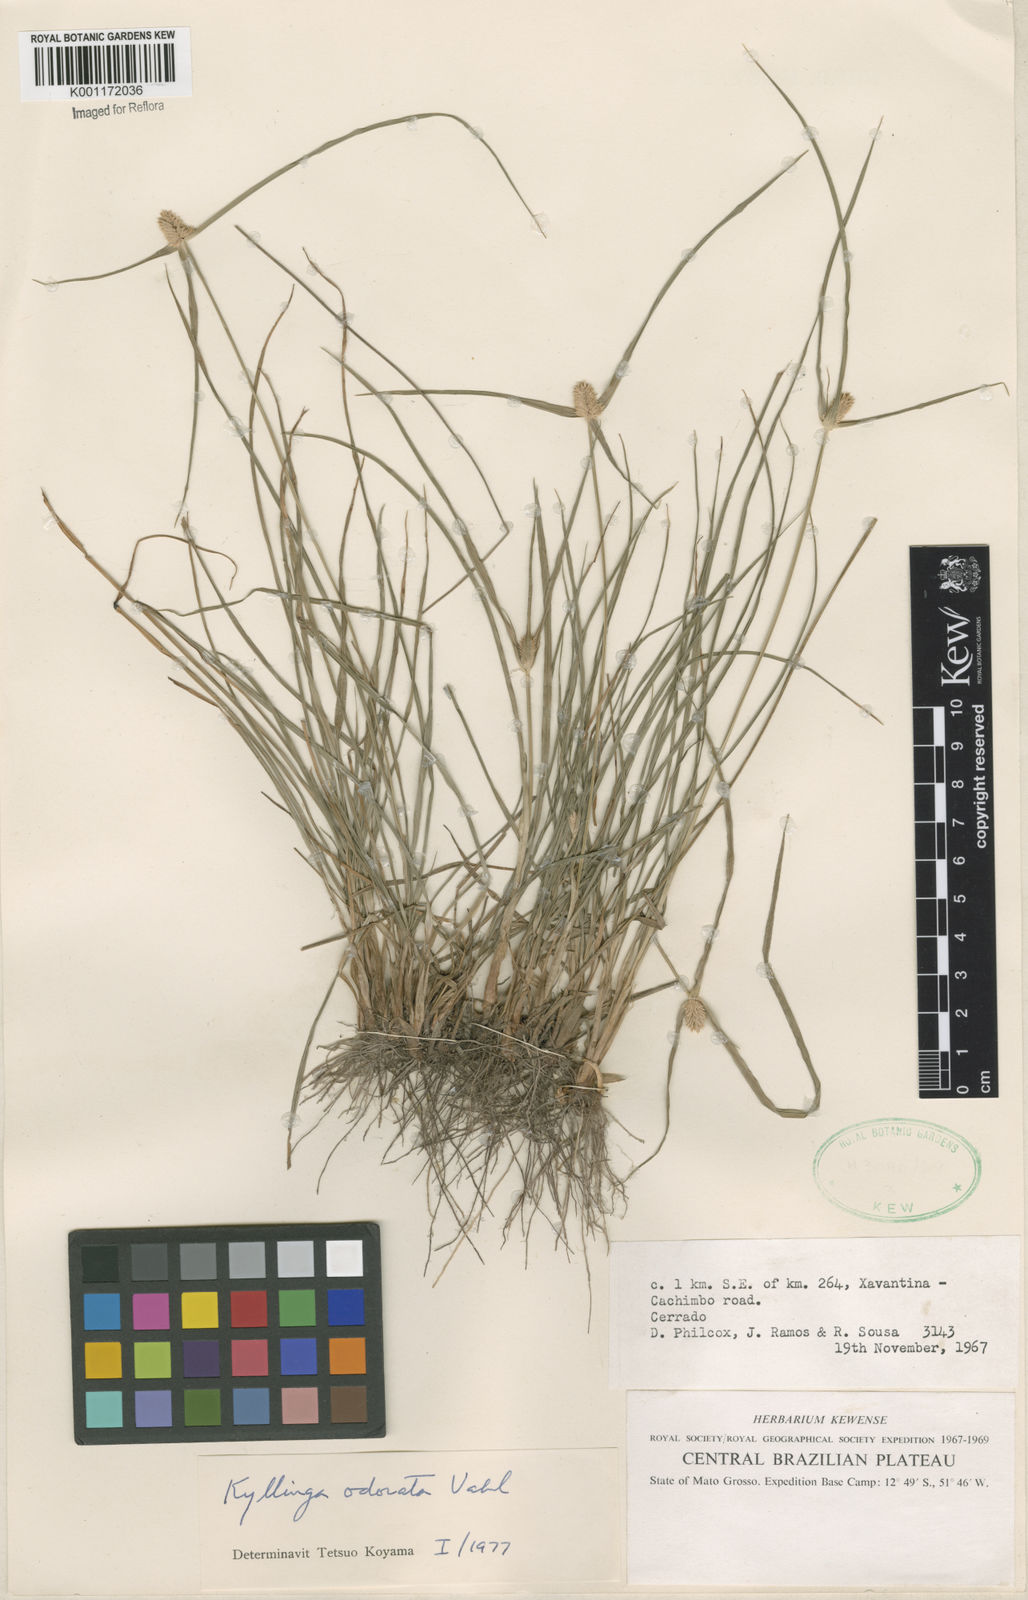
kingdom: Plantae
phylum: Tracheophyta
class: Liliopsida
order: Poales
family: Cyperaceae
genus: Cyperus
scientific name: Cyperus
